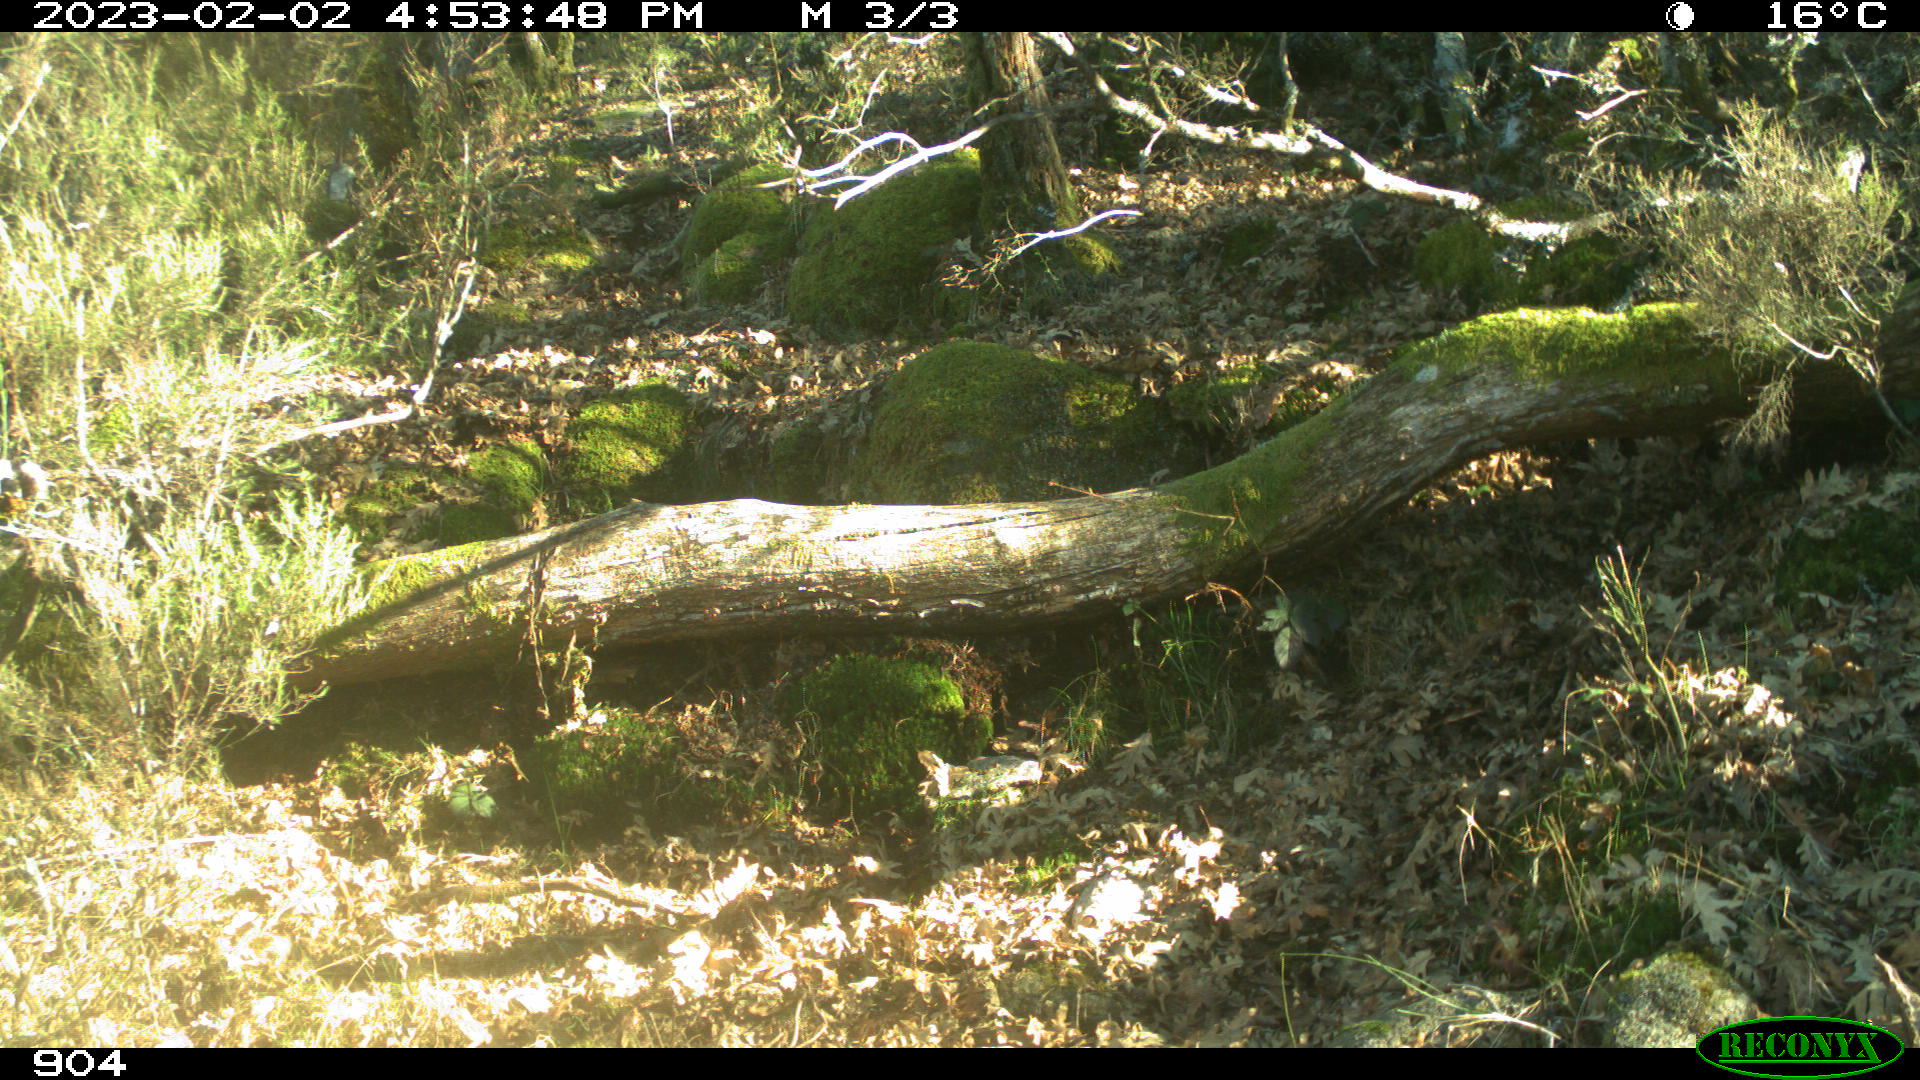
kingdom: Animalia
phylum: Chordata
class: Mammalia
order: Artiodactyla
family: Bovidae
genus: Bos
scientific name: Bos taurus
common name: Domesticated cattle
